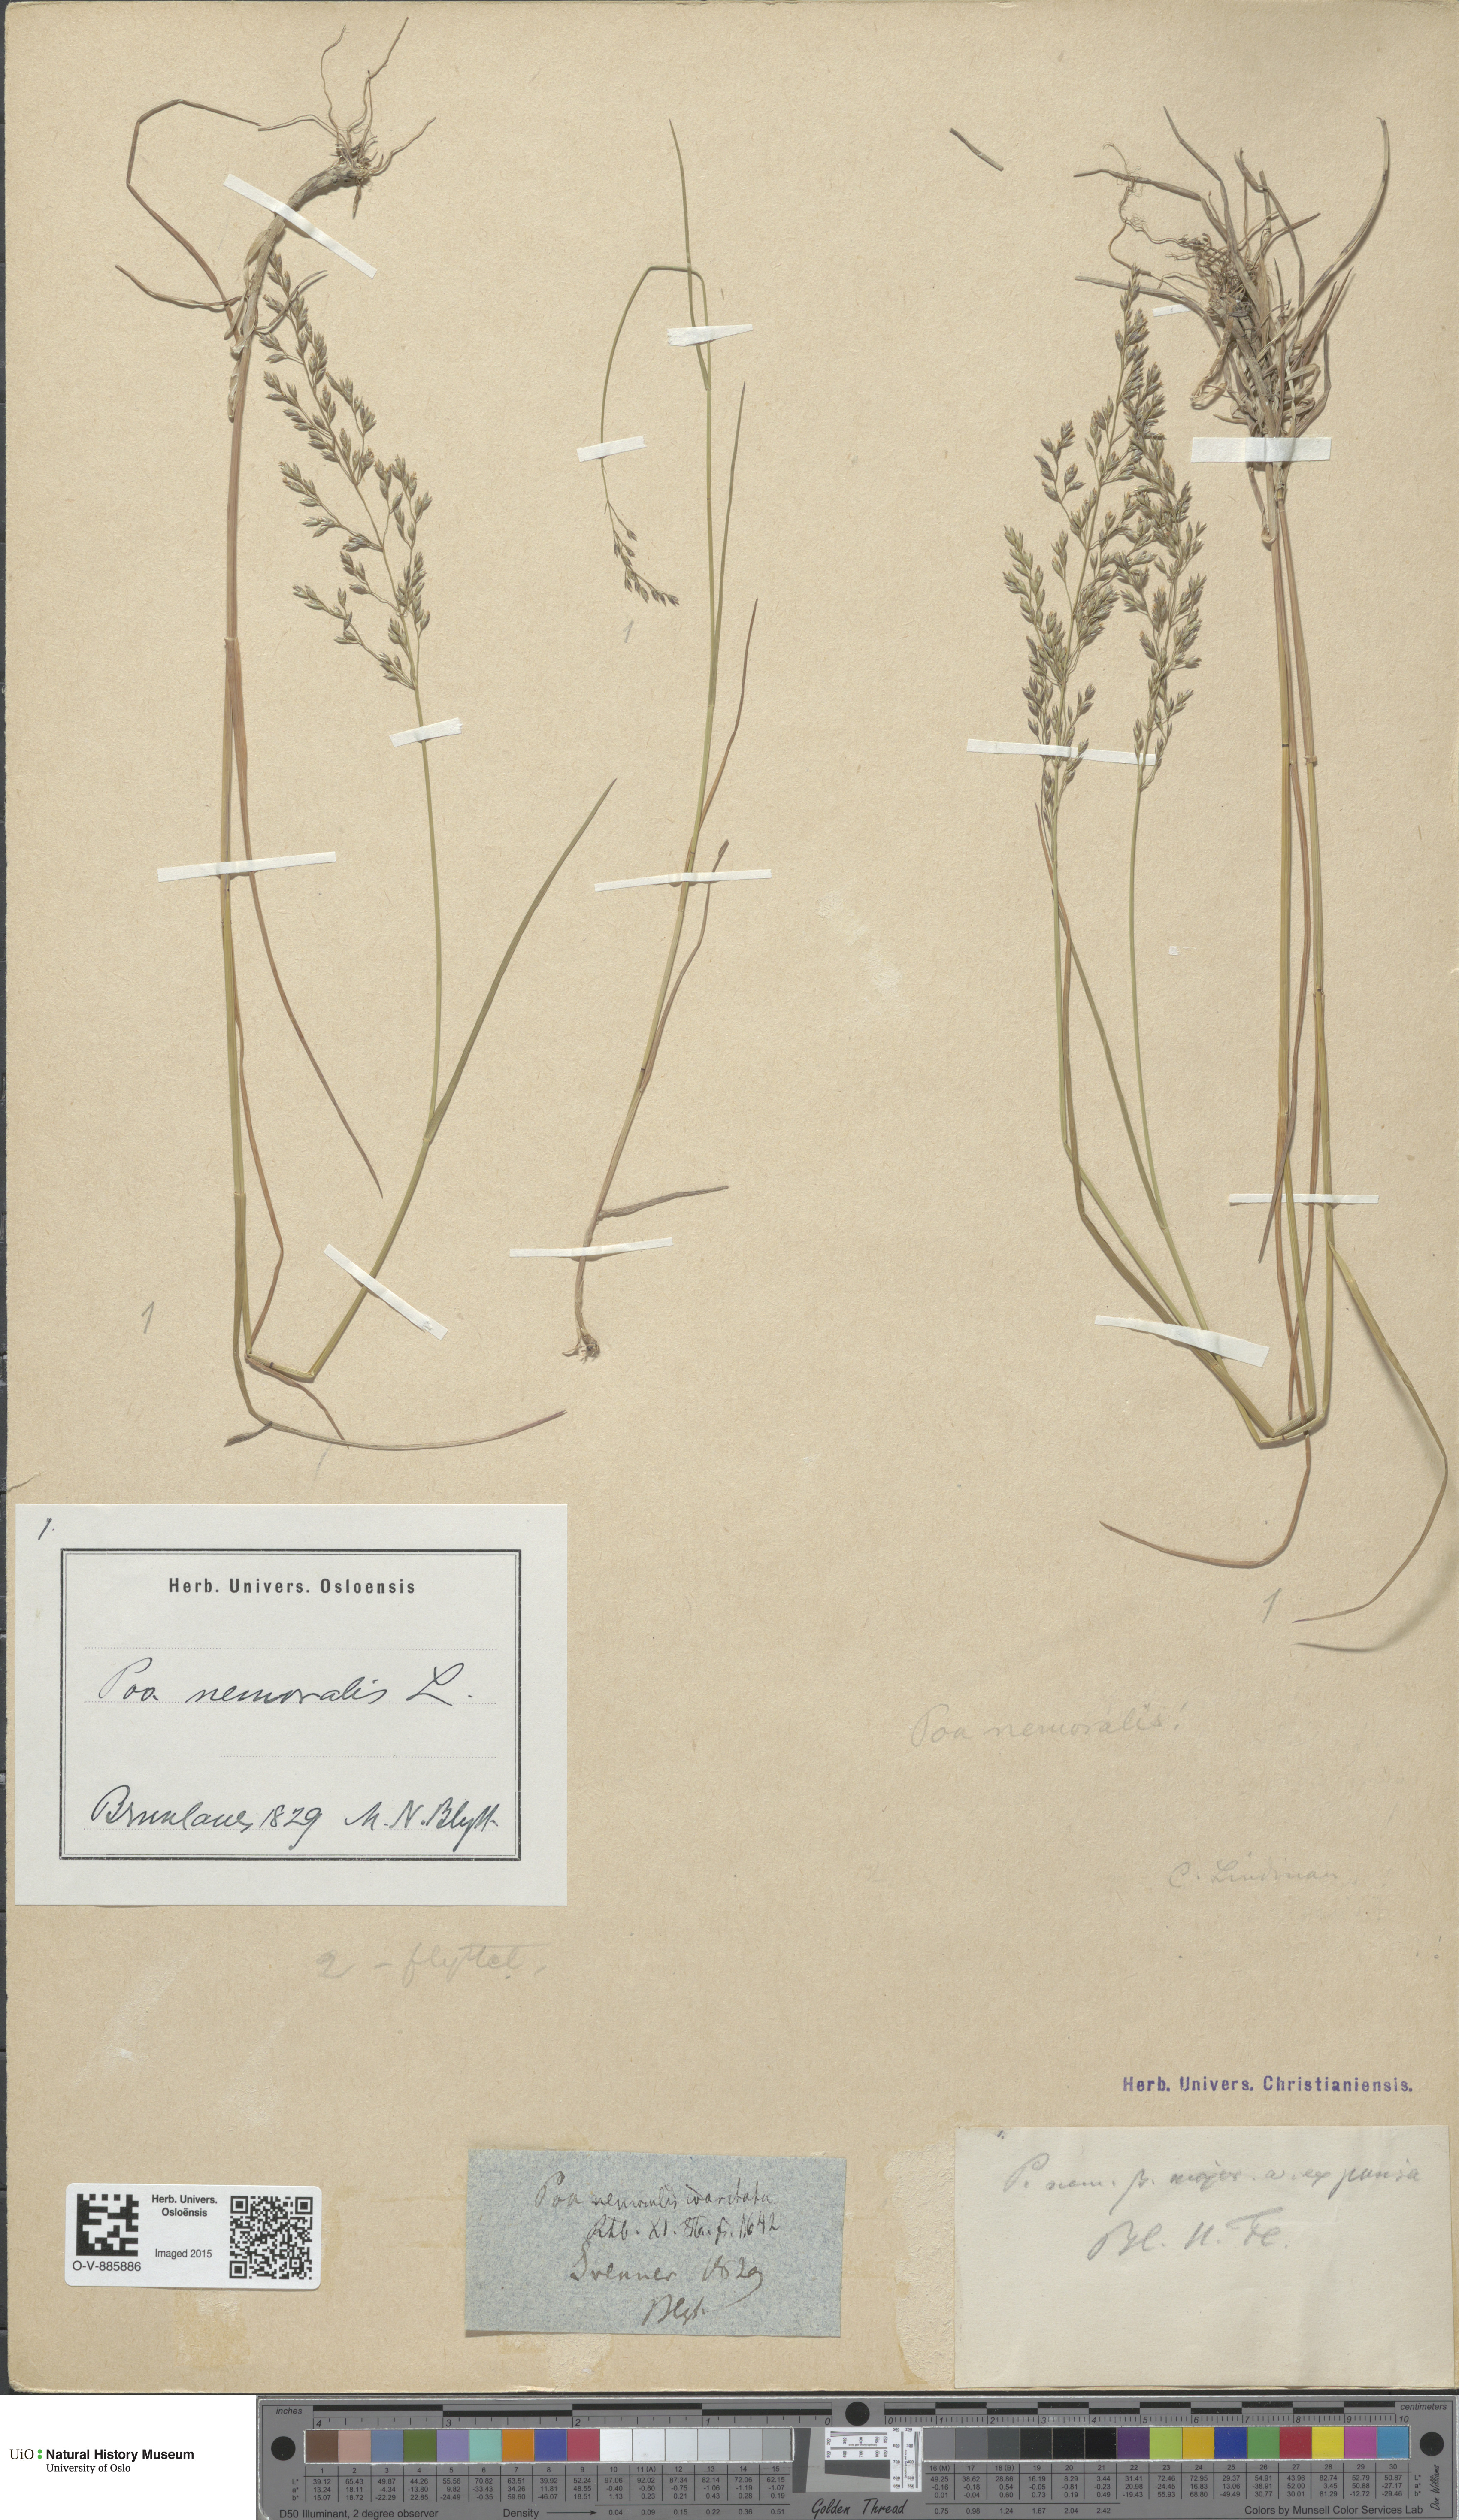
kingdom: Plantae
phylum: Tracheophyta
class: Liliopsida
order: Poales
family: Poaceae
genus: Poa
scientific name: Poa nemoralis
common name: Wood bluegrass
